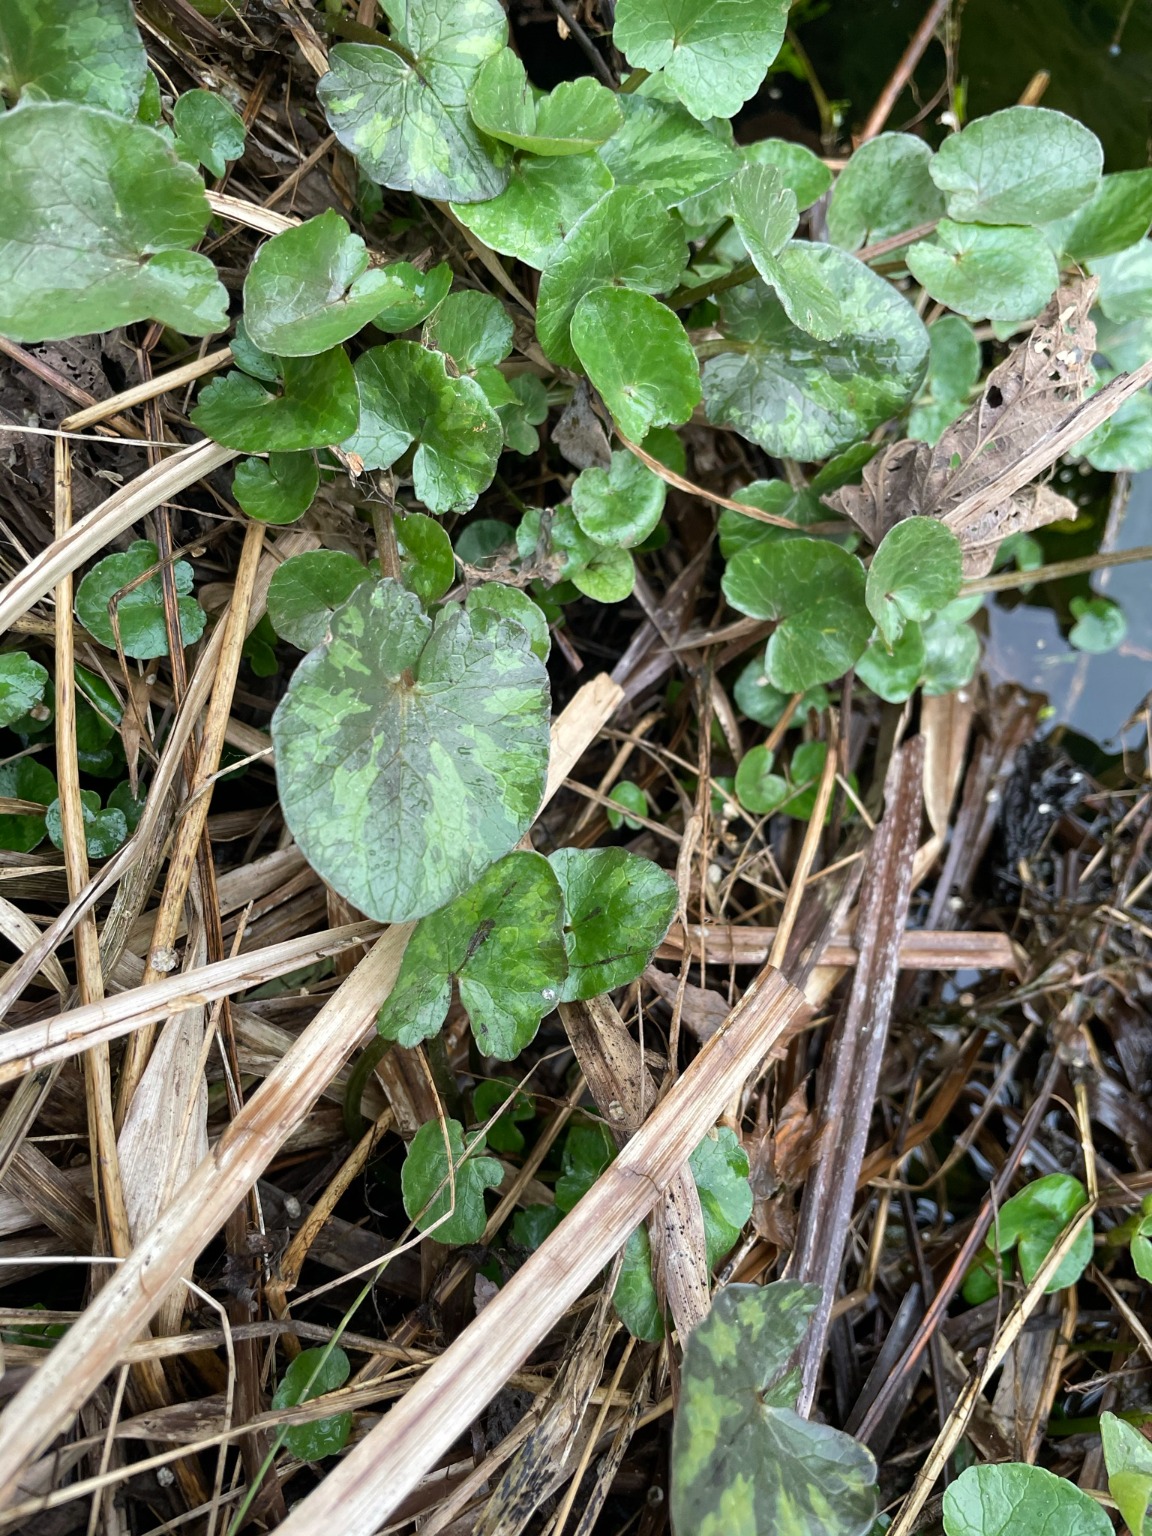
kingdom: Plantae
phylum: Tracheophyta
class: Magnoliopsida
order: Ranunculales
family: Ranunculaceae
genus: Ficaria
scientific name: Ficaria verna
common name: Vorterod
